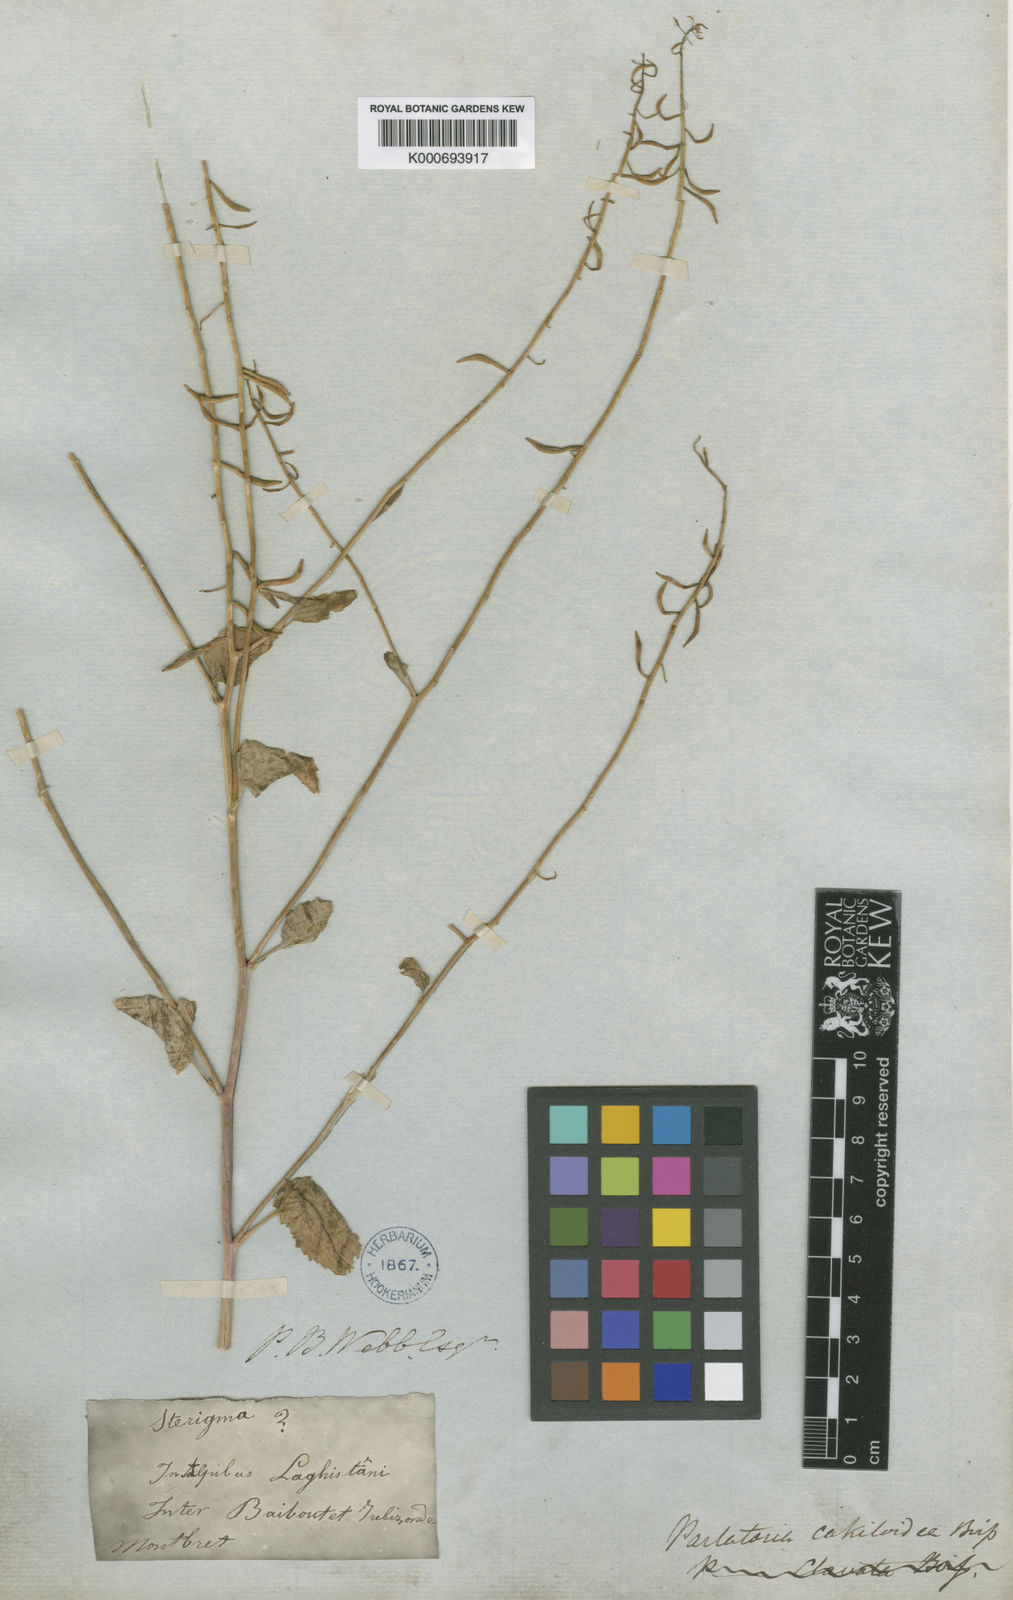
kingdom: Plantae
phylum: Tracheophyta
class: Magnoliopsida
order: Brassicales
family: Brassicaceae
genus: Parlatoria
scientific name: Parlatoria cakiloidea
